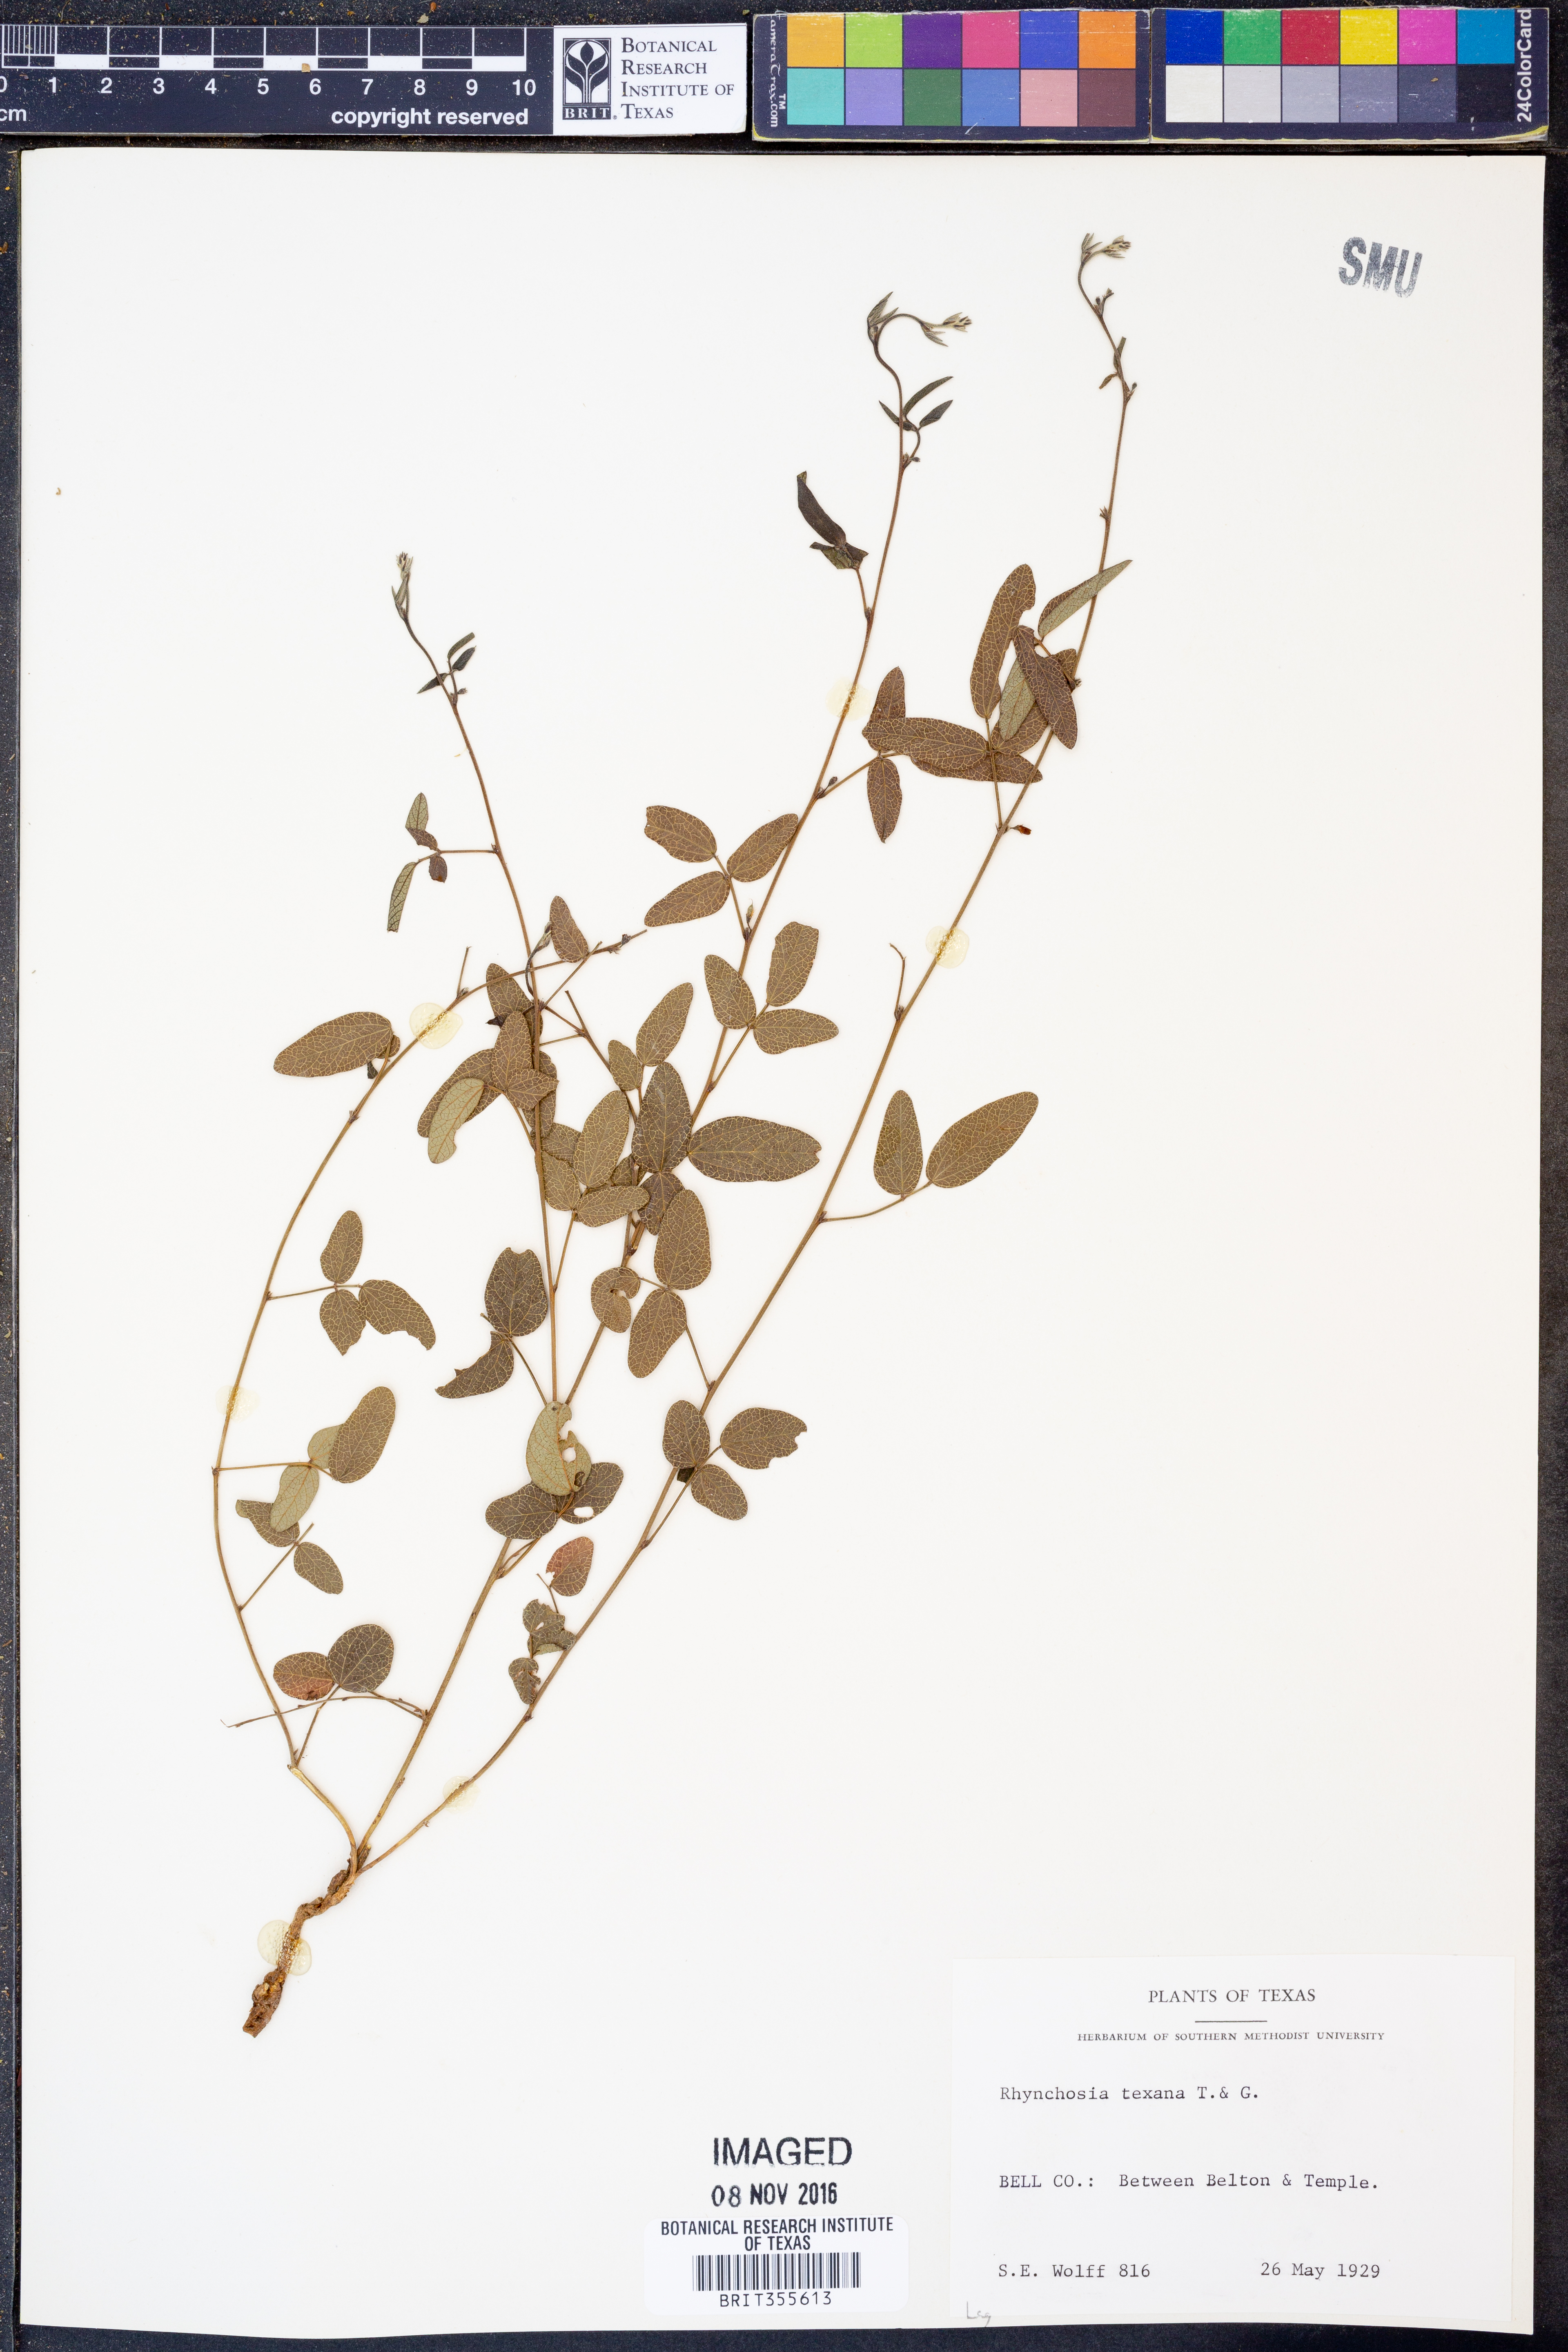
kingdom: Plantae
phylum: Tracheophyta
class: Magnoliopsida
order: Fabales
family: Fabaceae
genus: Rhynchosia
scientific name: Rhynchosia senna
